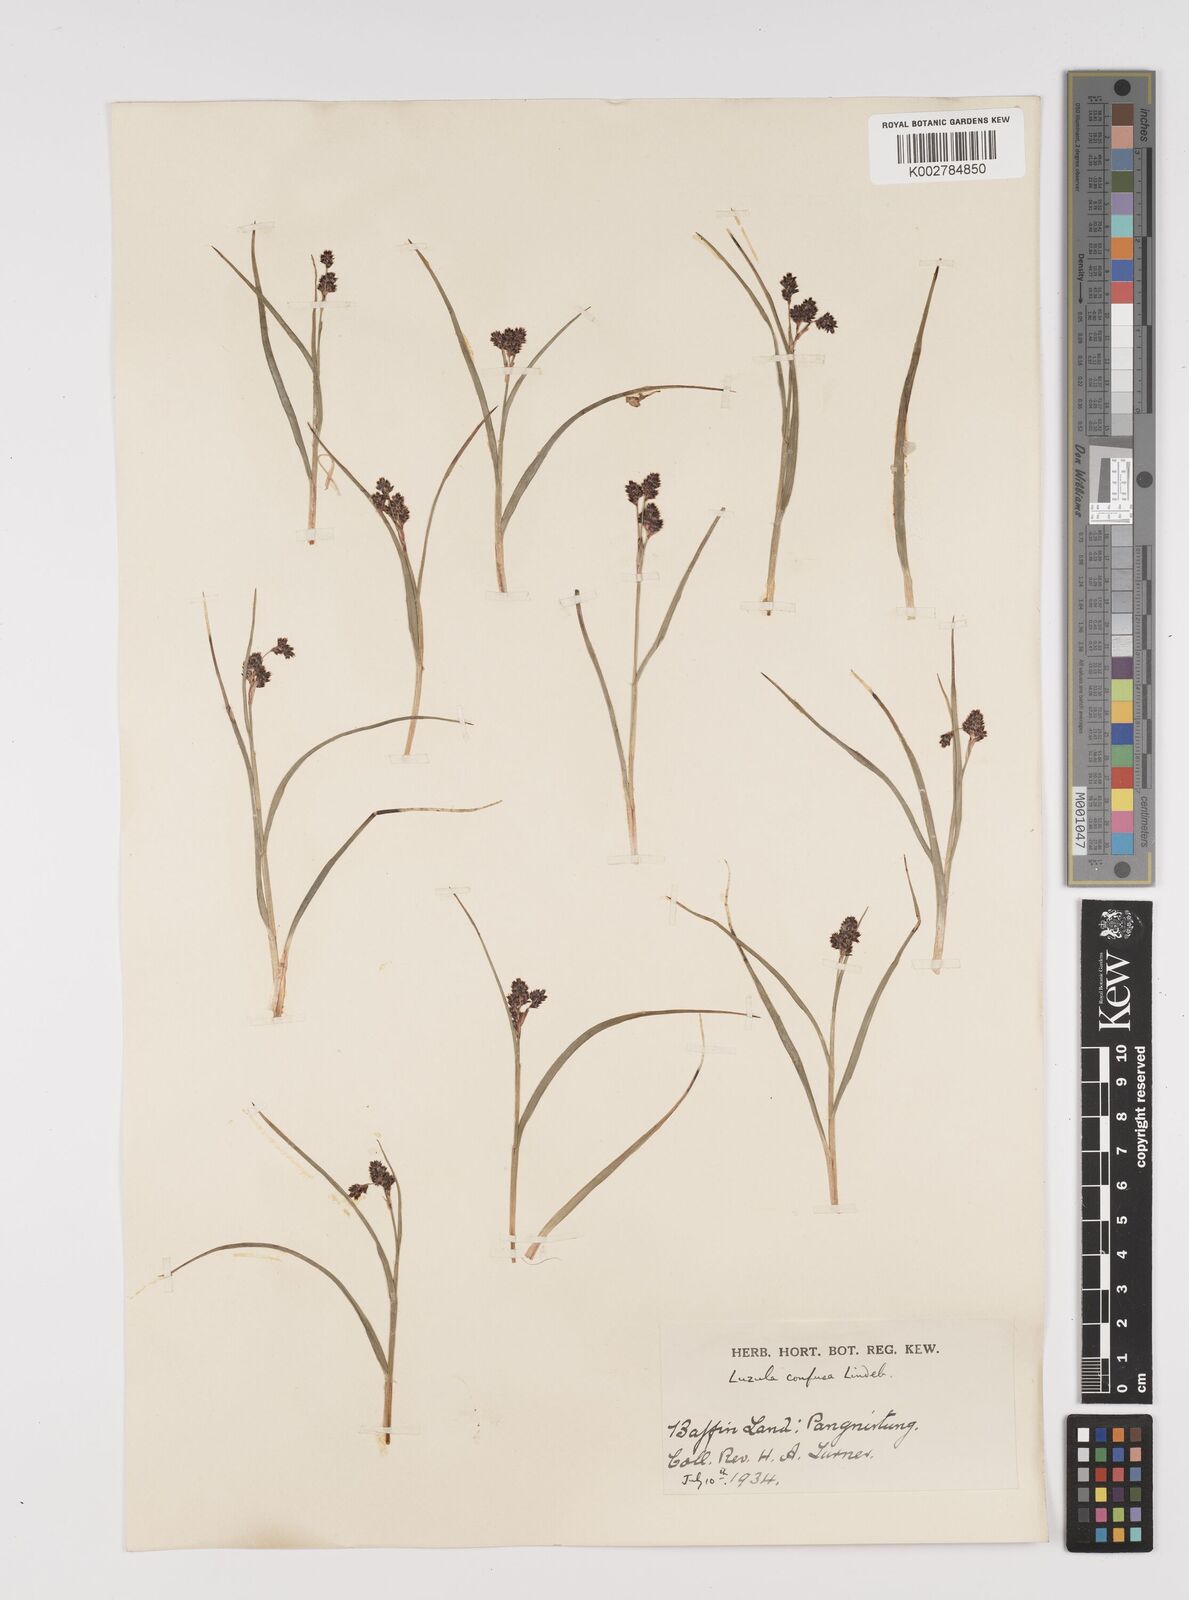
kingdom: Plantae
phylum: Tracheophyta
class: Liliopsida
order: Poales
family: Juncaceae
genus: Luzula
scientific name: Luzula confusa
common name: Northern wood rush
